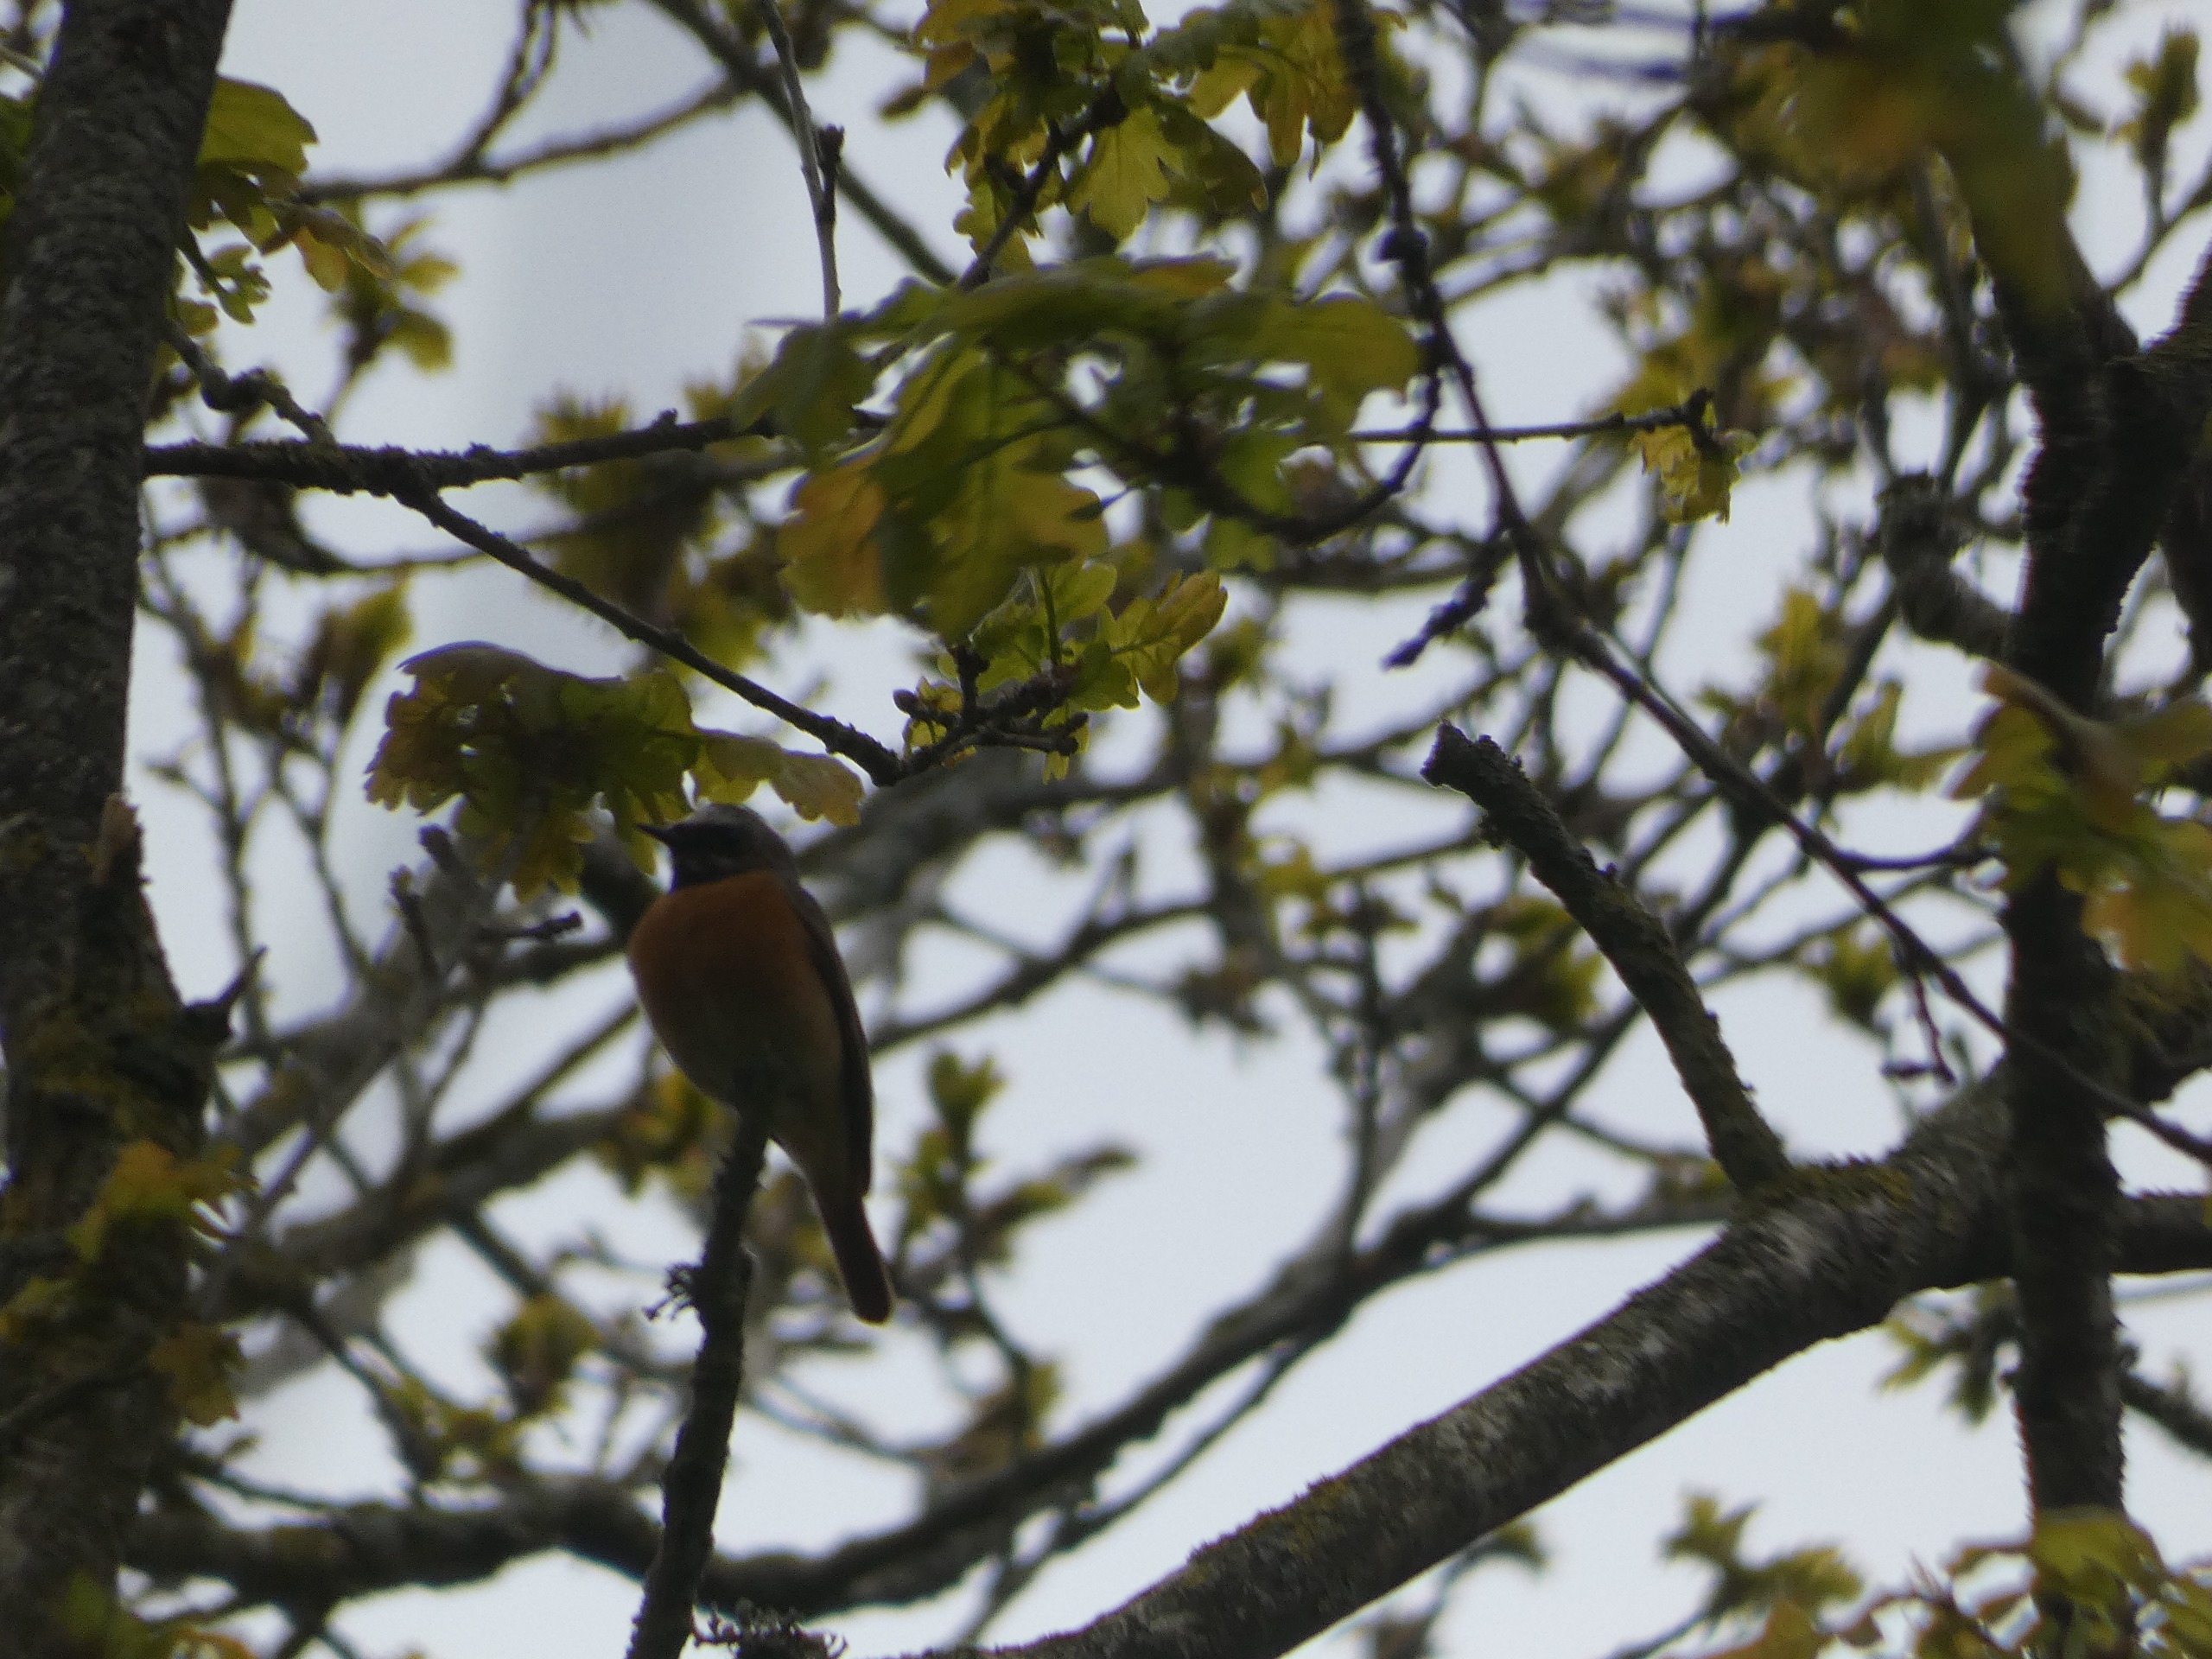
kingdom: Animalia
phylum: Chordata
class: Aves
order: Passeriformes
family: Muscicapidae
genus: Phoenicurus
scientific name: Phoenicurus phoenicurus
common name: Rødstjert
